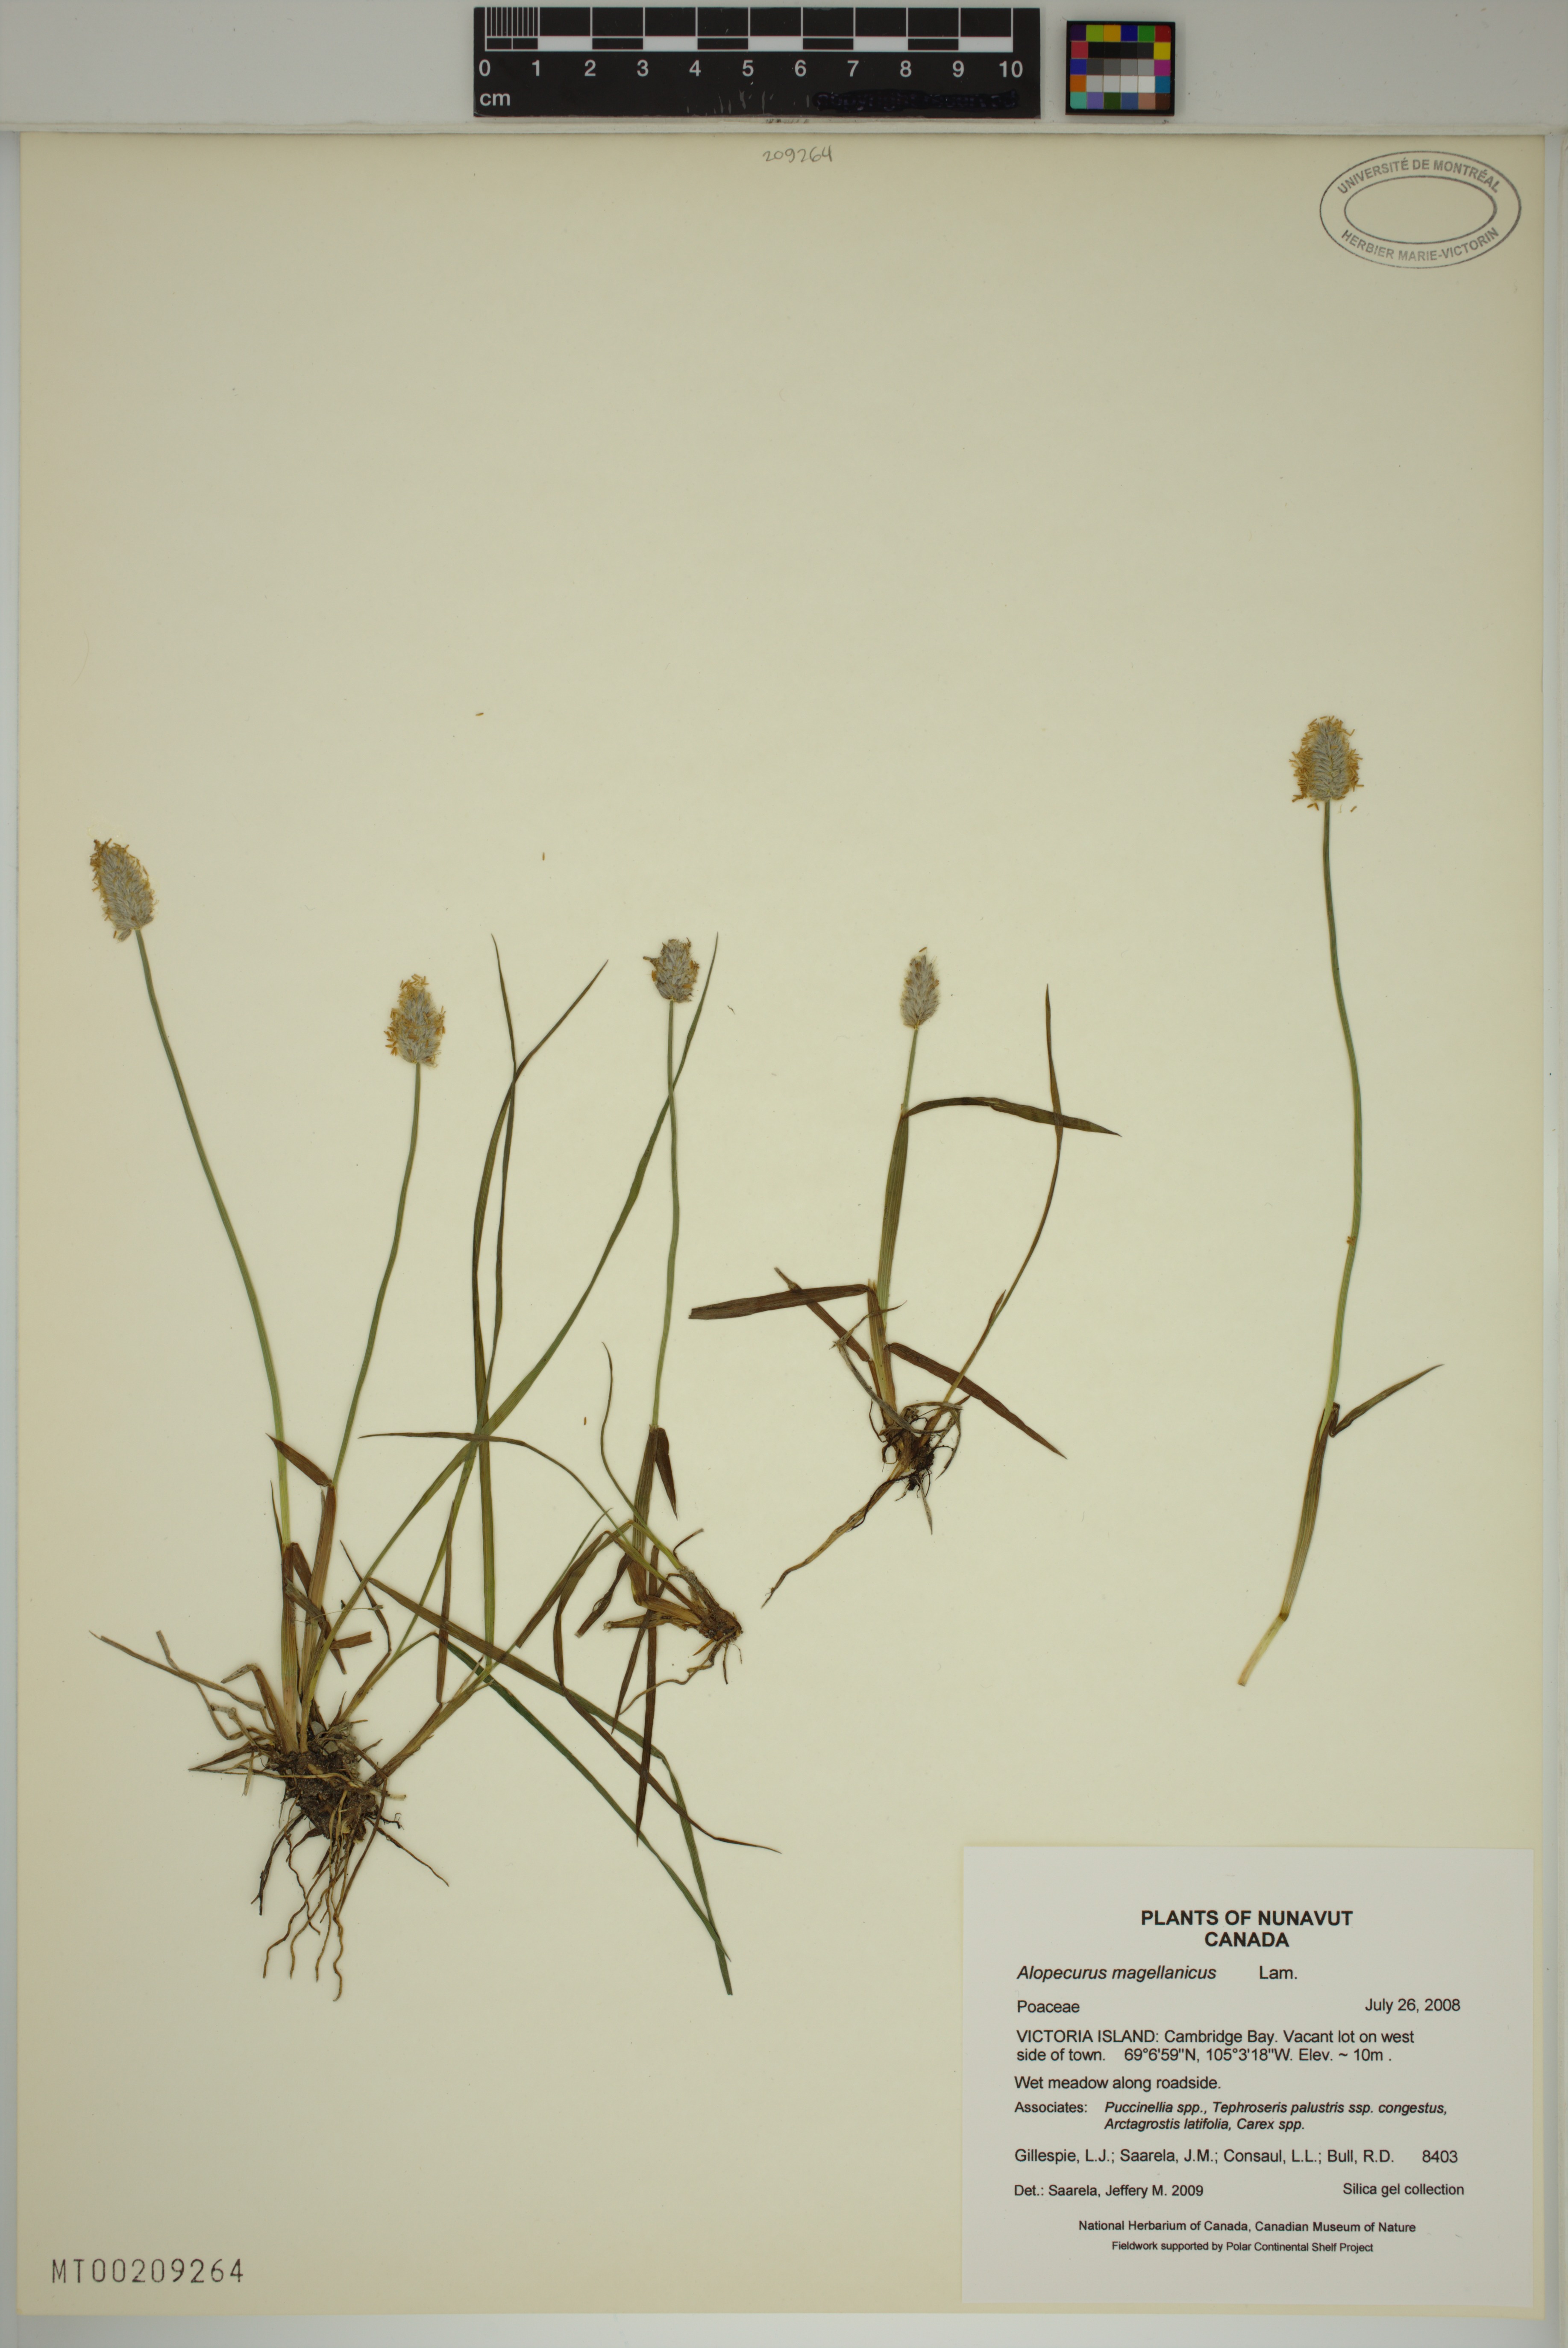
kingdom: Plantae
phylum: Tracheophyta
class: Liliopsida
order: Poales
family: Poaceae
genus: Alopecurus
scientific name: Alopecurus magellanicus
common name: Alpine foxtail
